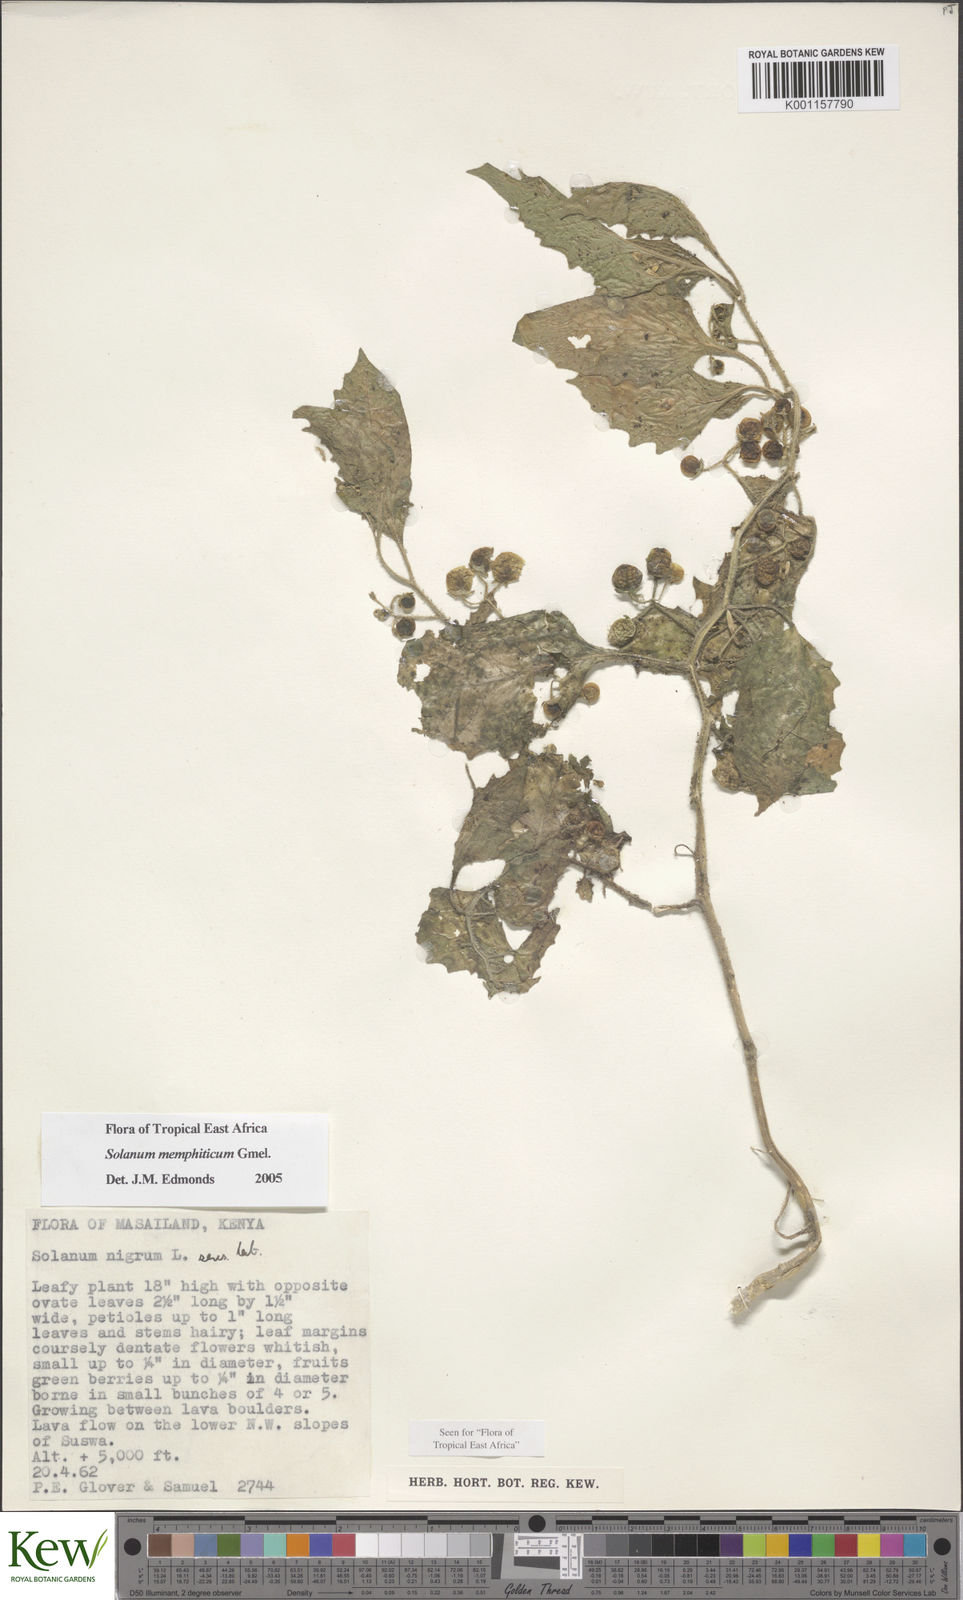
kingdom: Plantae
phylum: Tracheophyta
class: Magnoliopsida
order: Solanales
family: Solanaceae
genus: Solanum
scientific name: Solanum memphiticum
